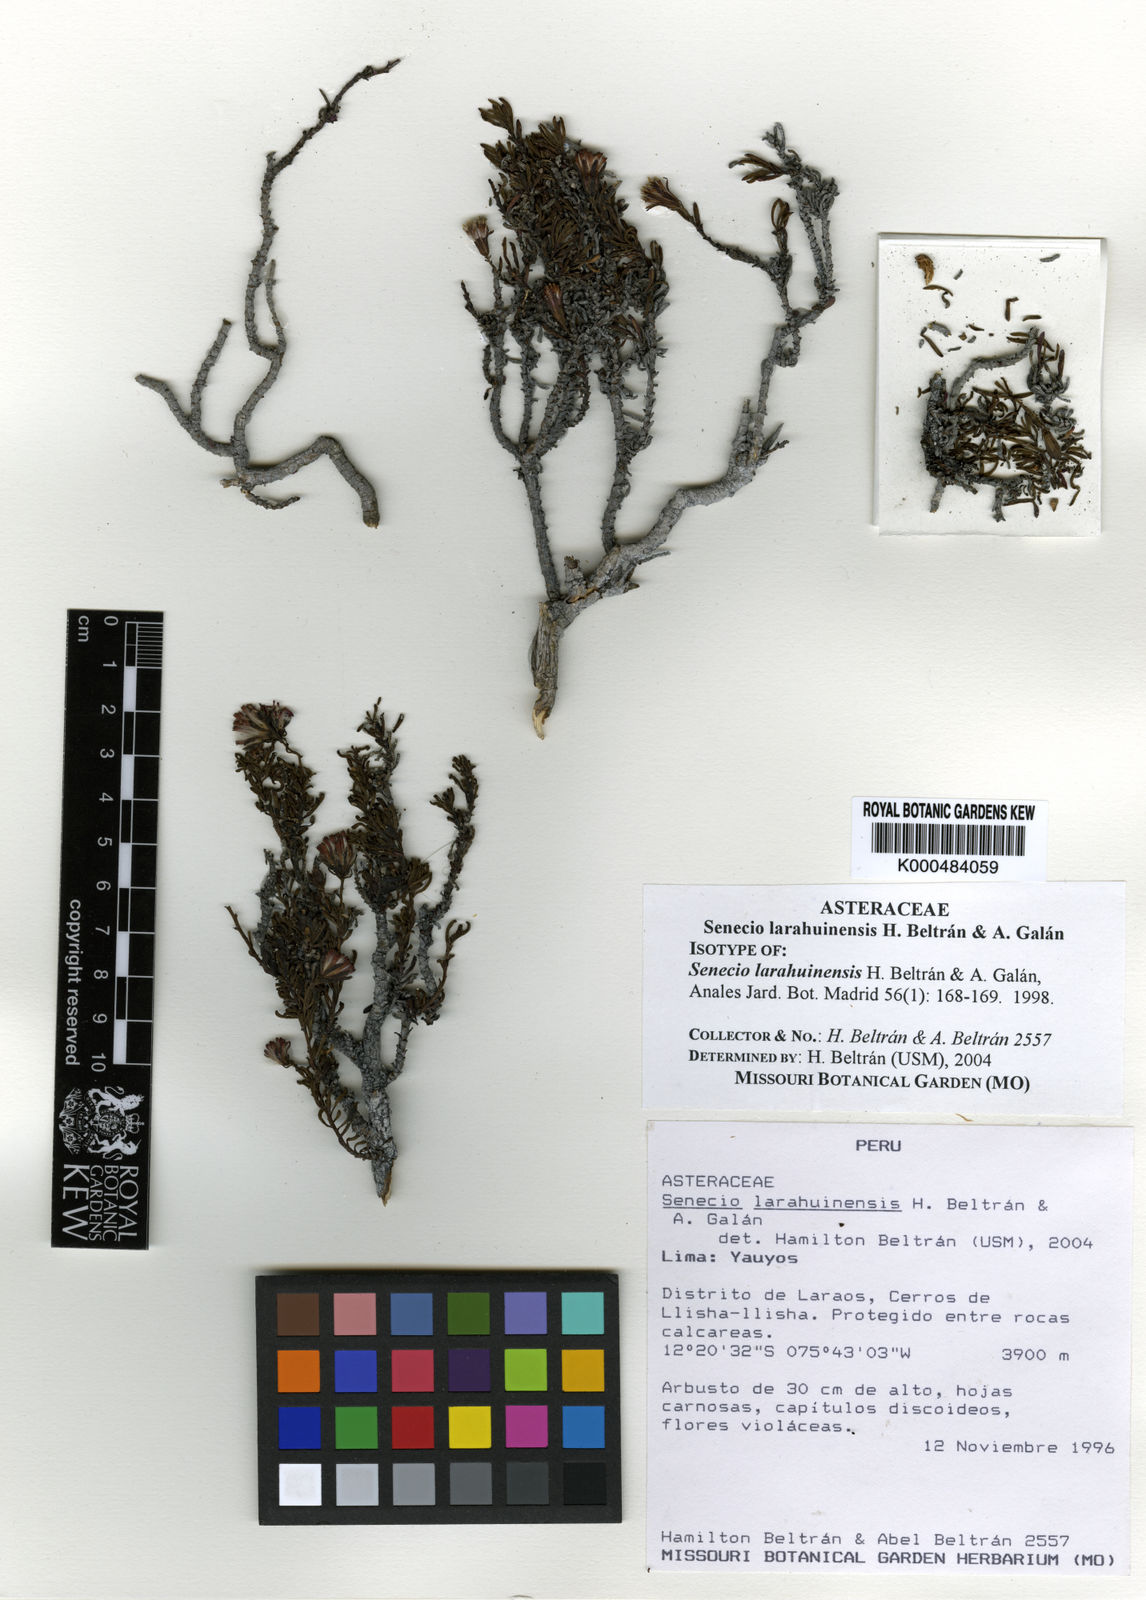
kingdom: Plantae
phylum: Tracheophyta
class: Magnoliopsida
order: Asterales
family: Asteraceae
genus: Senecio
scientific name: Senecio
